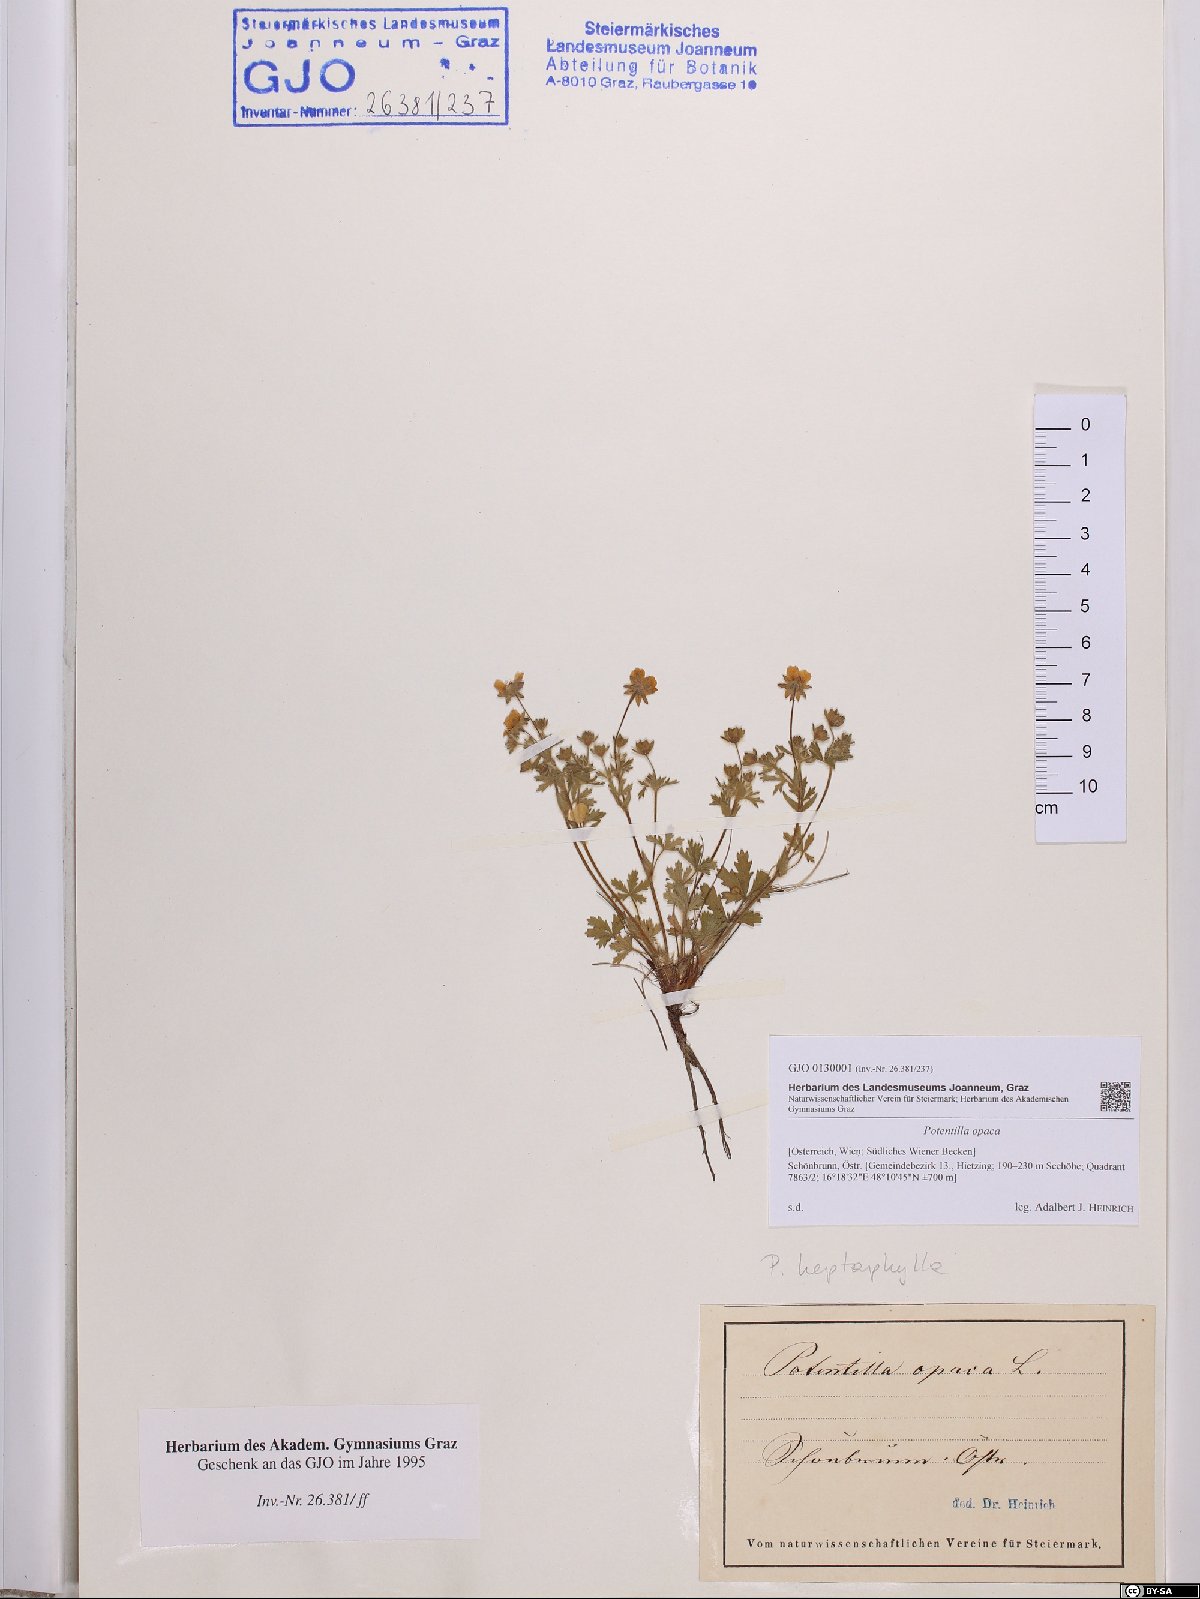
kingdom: Plantae
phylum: Tracheophyta
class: Magnoliopsida
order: Rosales
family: Rosaceae
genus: Potentilla
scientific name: Potentilla
